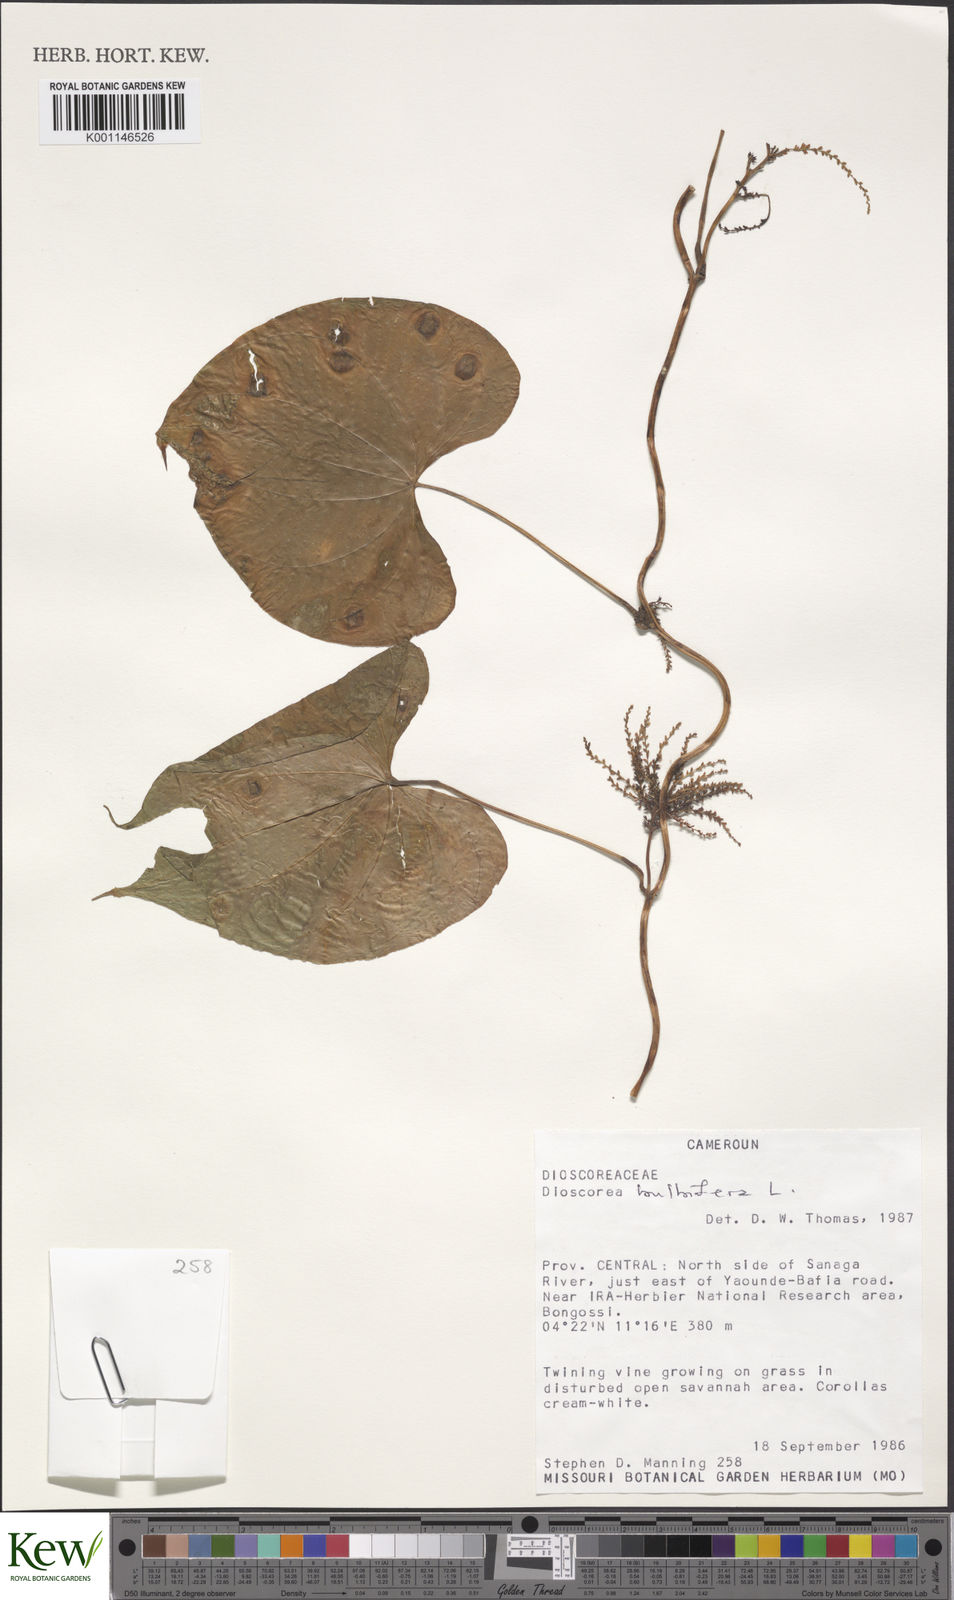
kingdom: Plantae
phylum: Tracheophyta
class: Liliopsida
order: Dioscoreales
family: Dioscoreaceae
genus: Dioscorea
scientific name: Dioscorea
